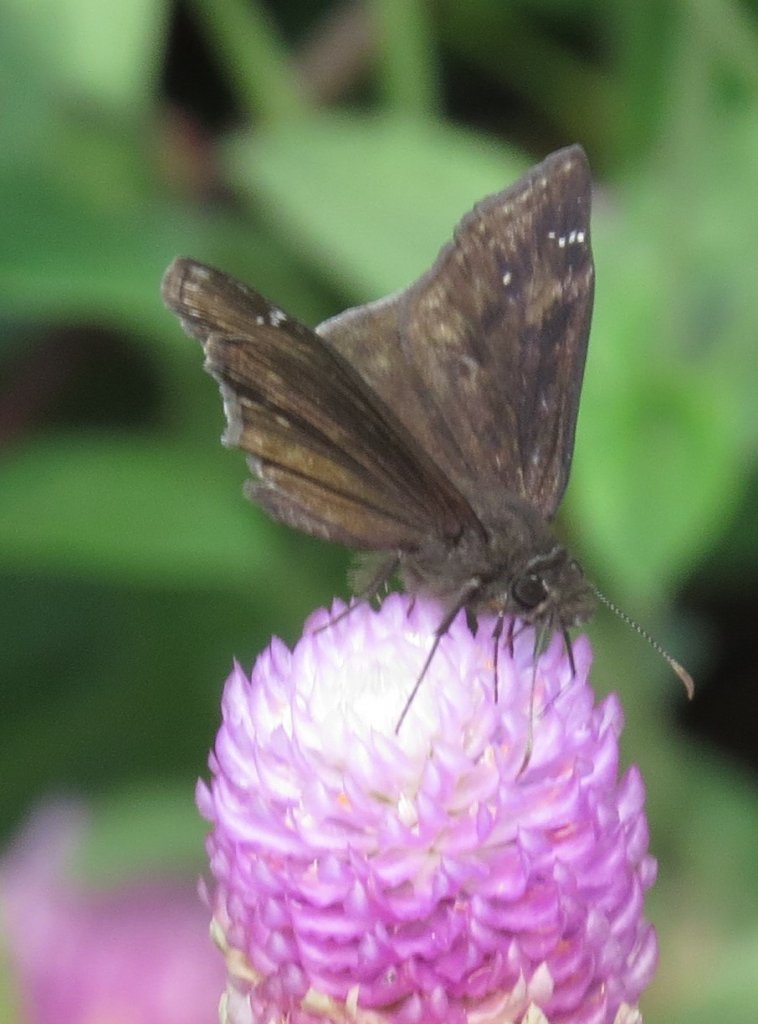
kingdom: Animalia
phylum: Arthropoda
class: Insecta
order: Lepidoptera
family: Hesperiidae
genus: Erynnis
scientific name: Erynnis zarucco
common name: Zarucco Duskywing
